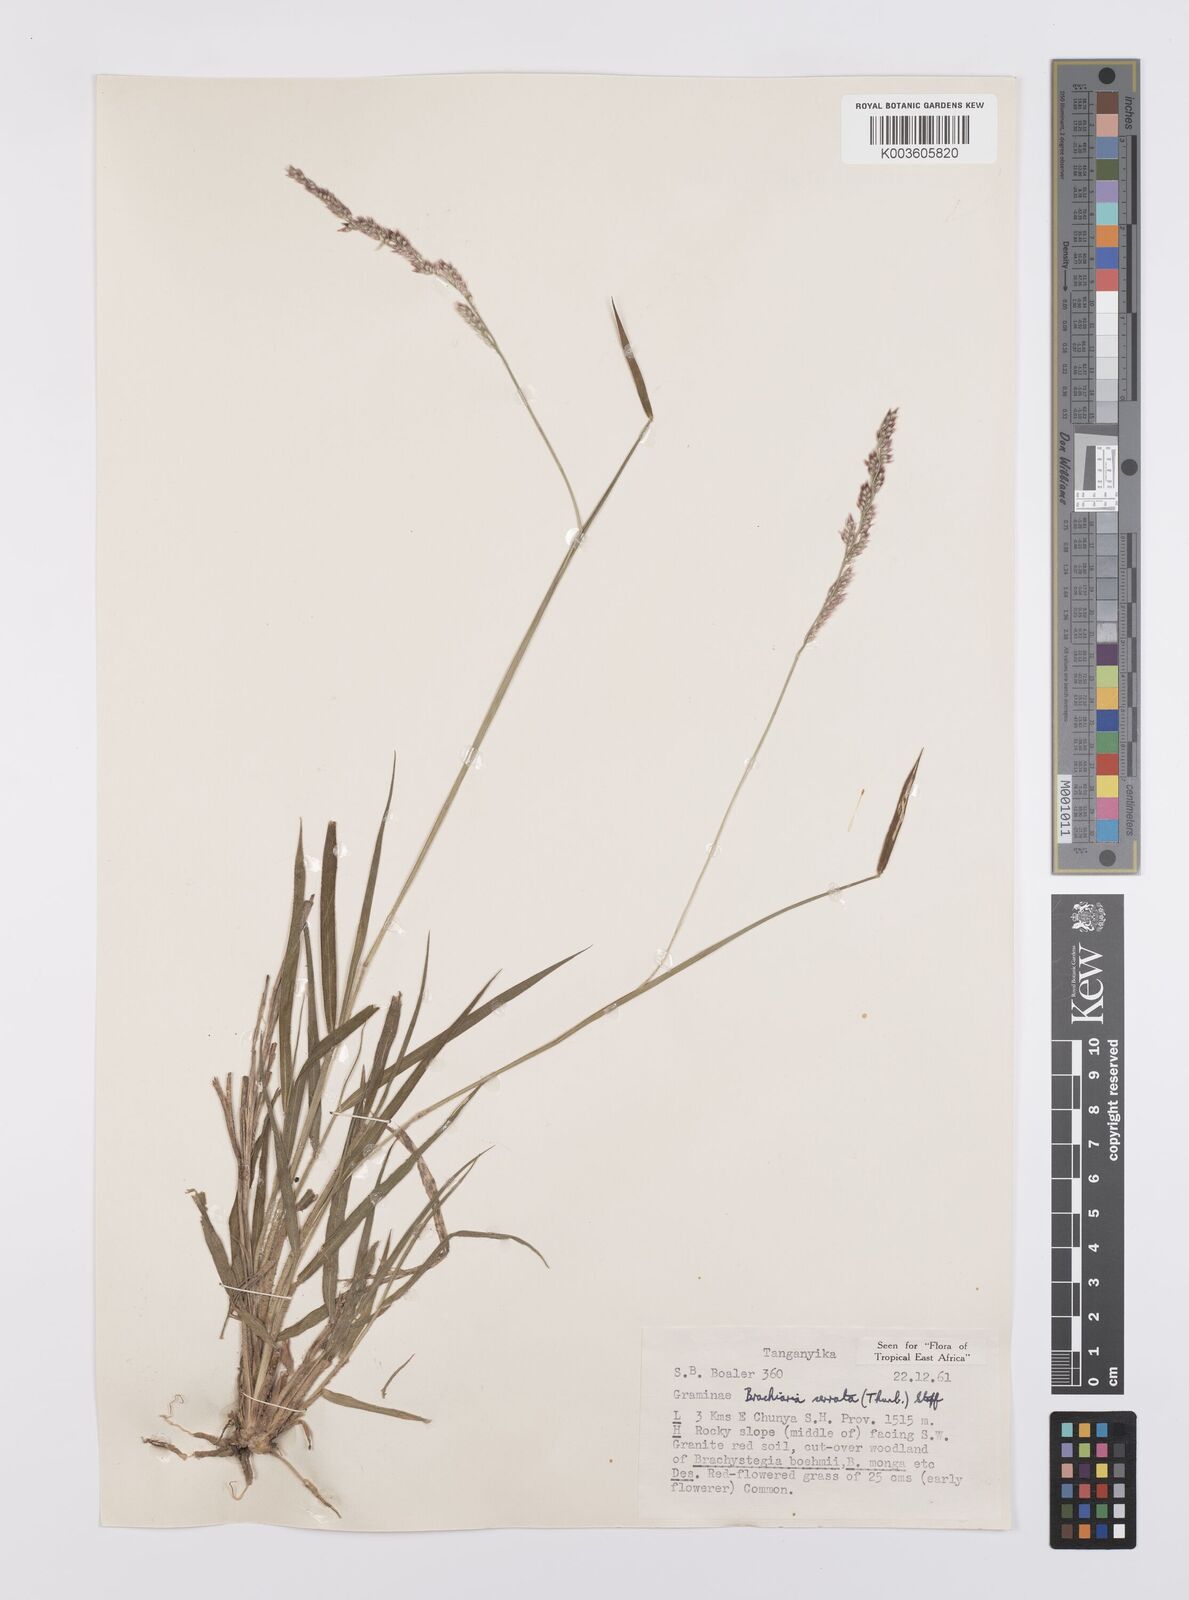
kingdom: Plantae
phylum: Tracheophyta
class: Liliopsida
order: Poales
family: Poaceae
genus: Urochloa
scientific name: Urochloa serrata
